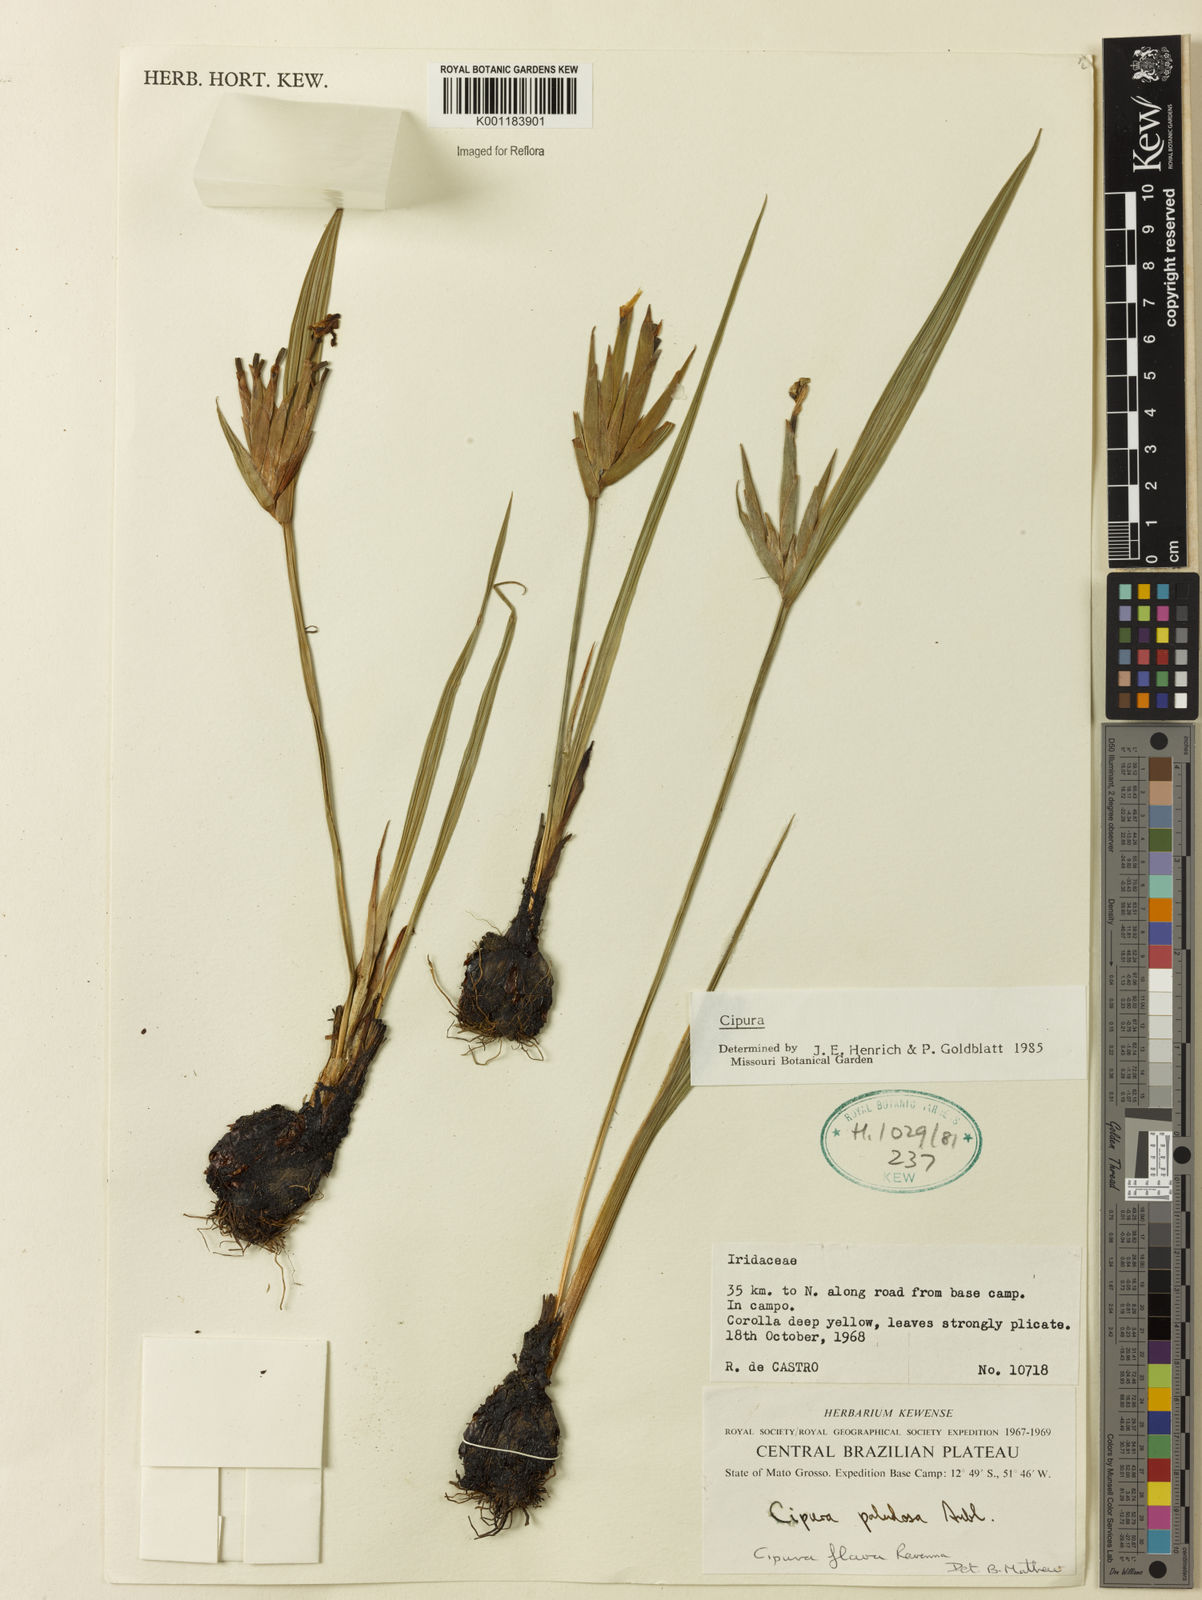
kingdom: Plantae
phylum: Tracheophyta
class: Liliopsida
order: Asparagales
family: Iridaceae
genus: Cipura
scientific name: Cipura
